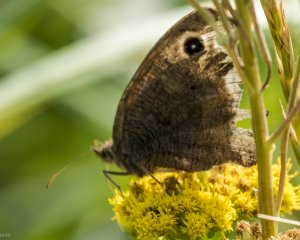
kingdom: Animalia
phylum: Arthropoda
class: Insecta
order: Lepidoptera
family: Nymphalidae
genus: Cercyonis
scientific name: Cercyonis pegala
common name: Common Wood-Nymph
